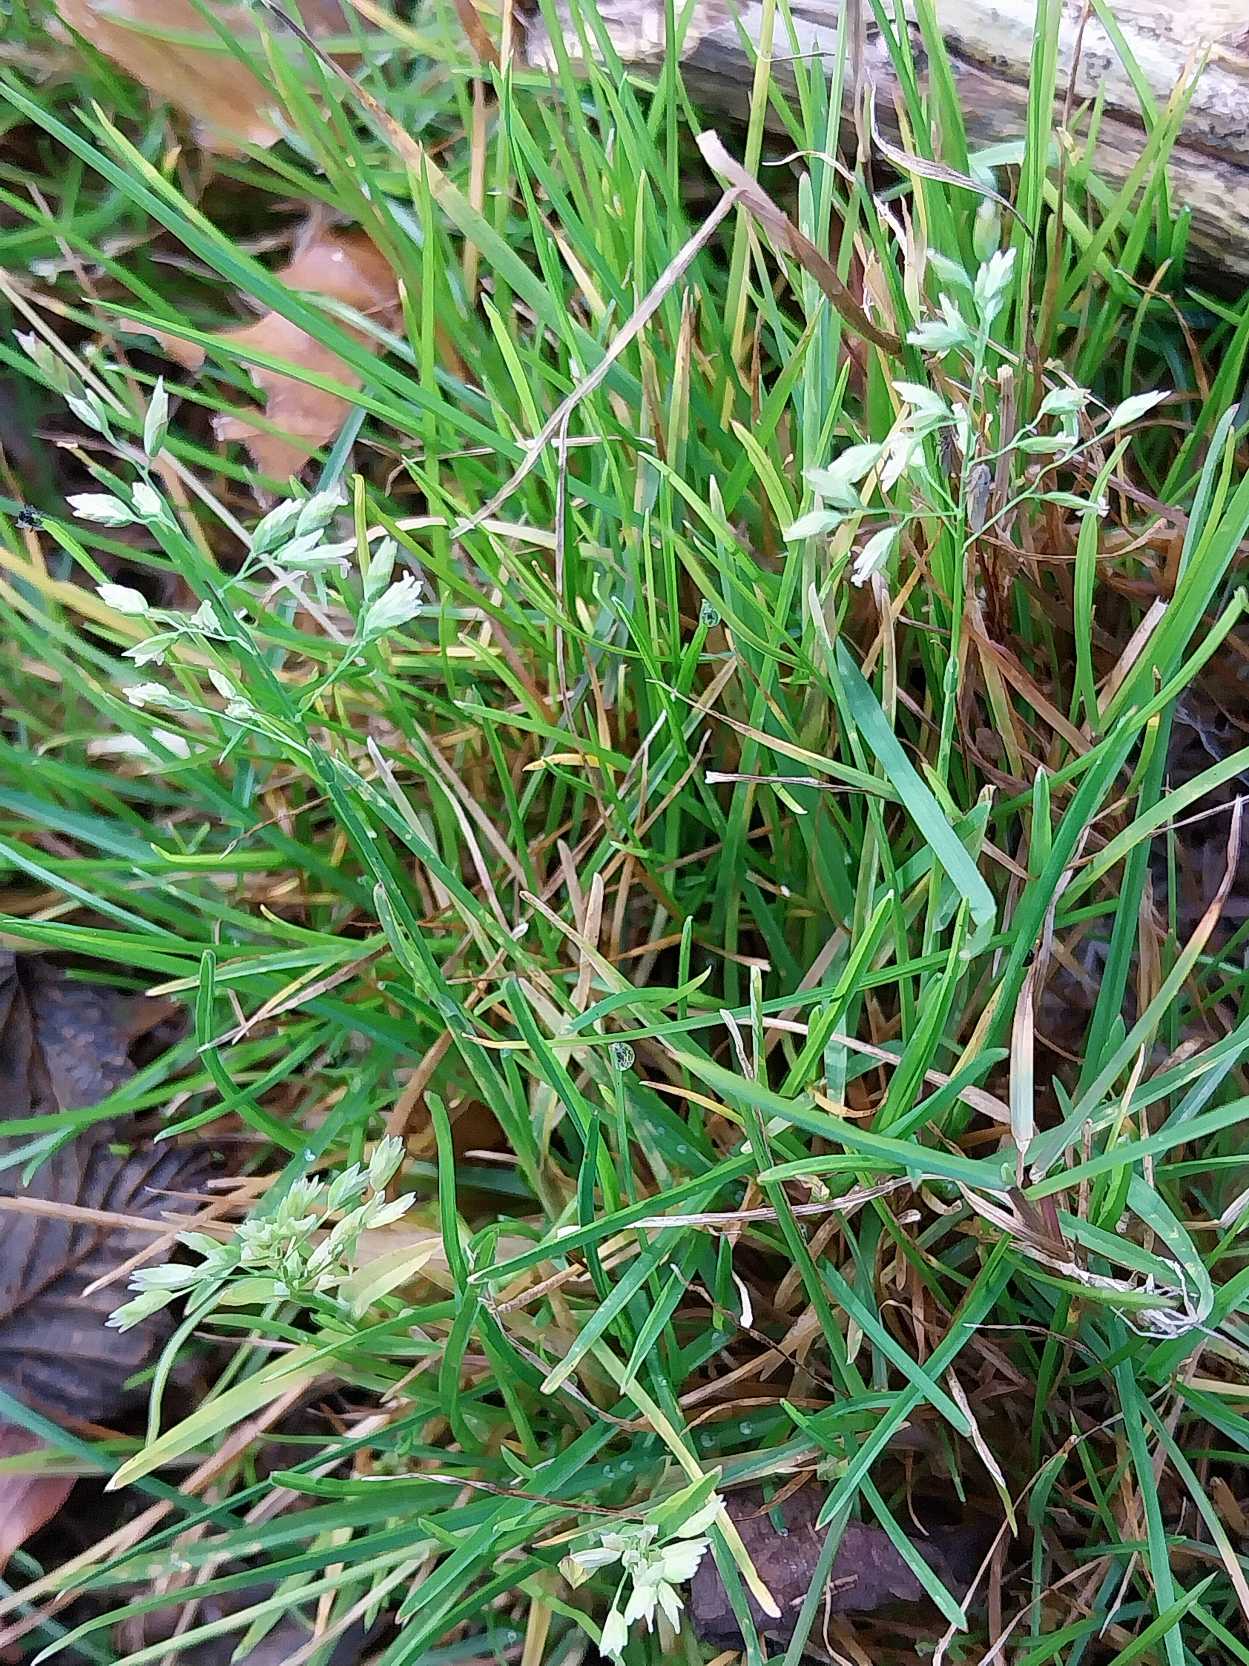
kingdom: Plantae
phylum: Tracheophyta
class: Liliopsida
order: Poales
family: Poaceae
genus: Poa
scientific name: Poa annua
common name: Enårig rapgræs
